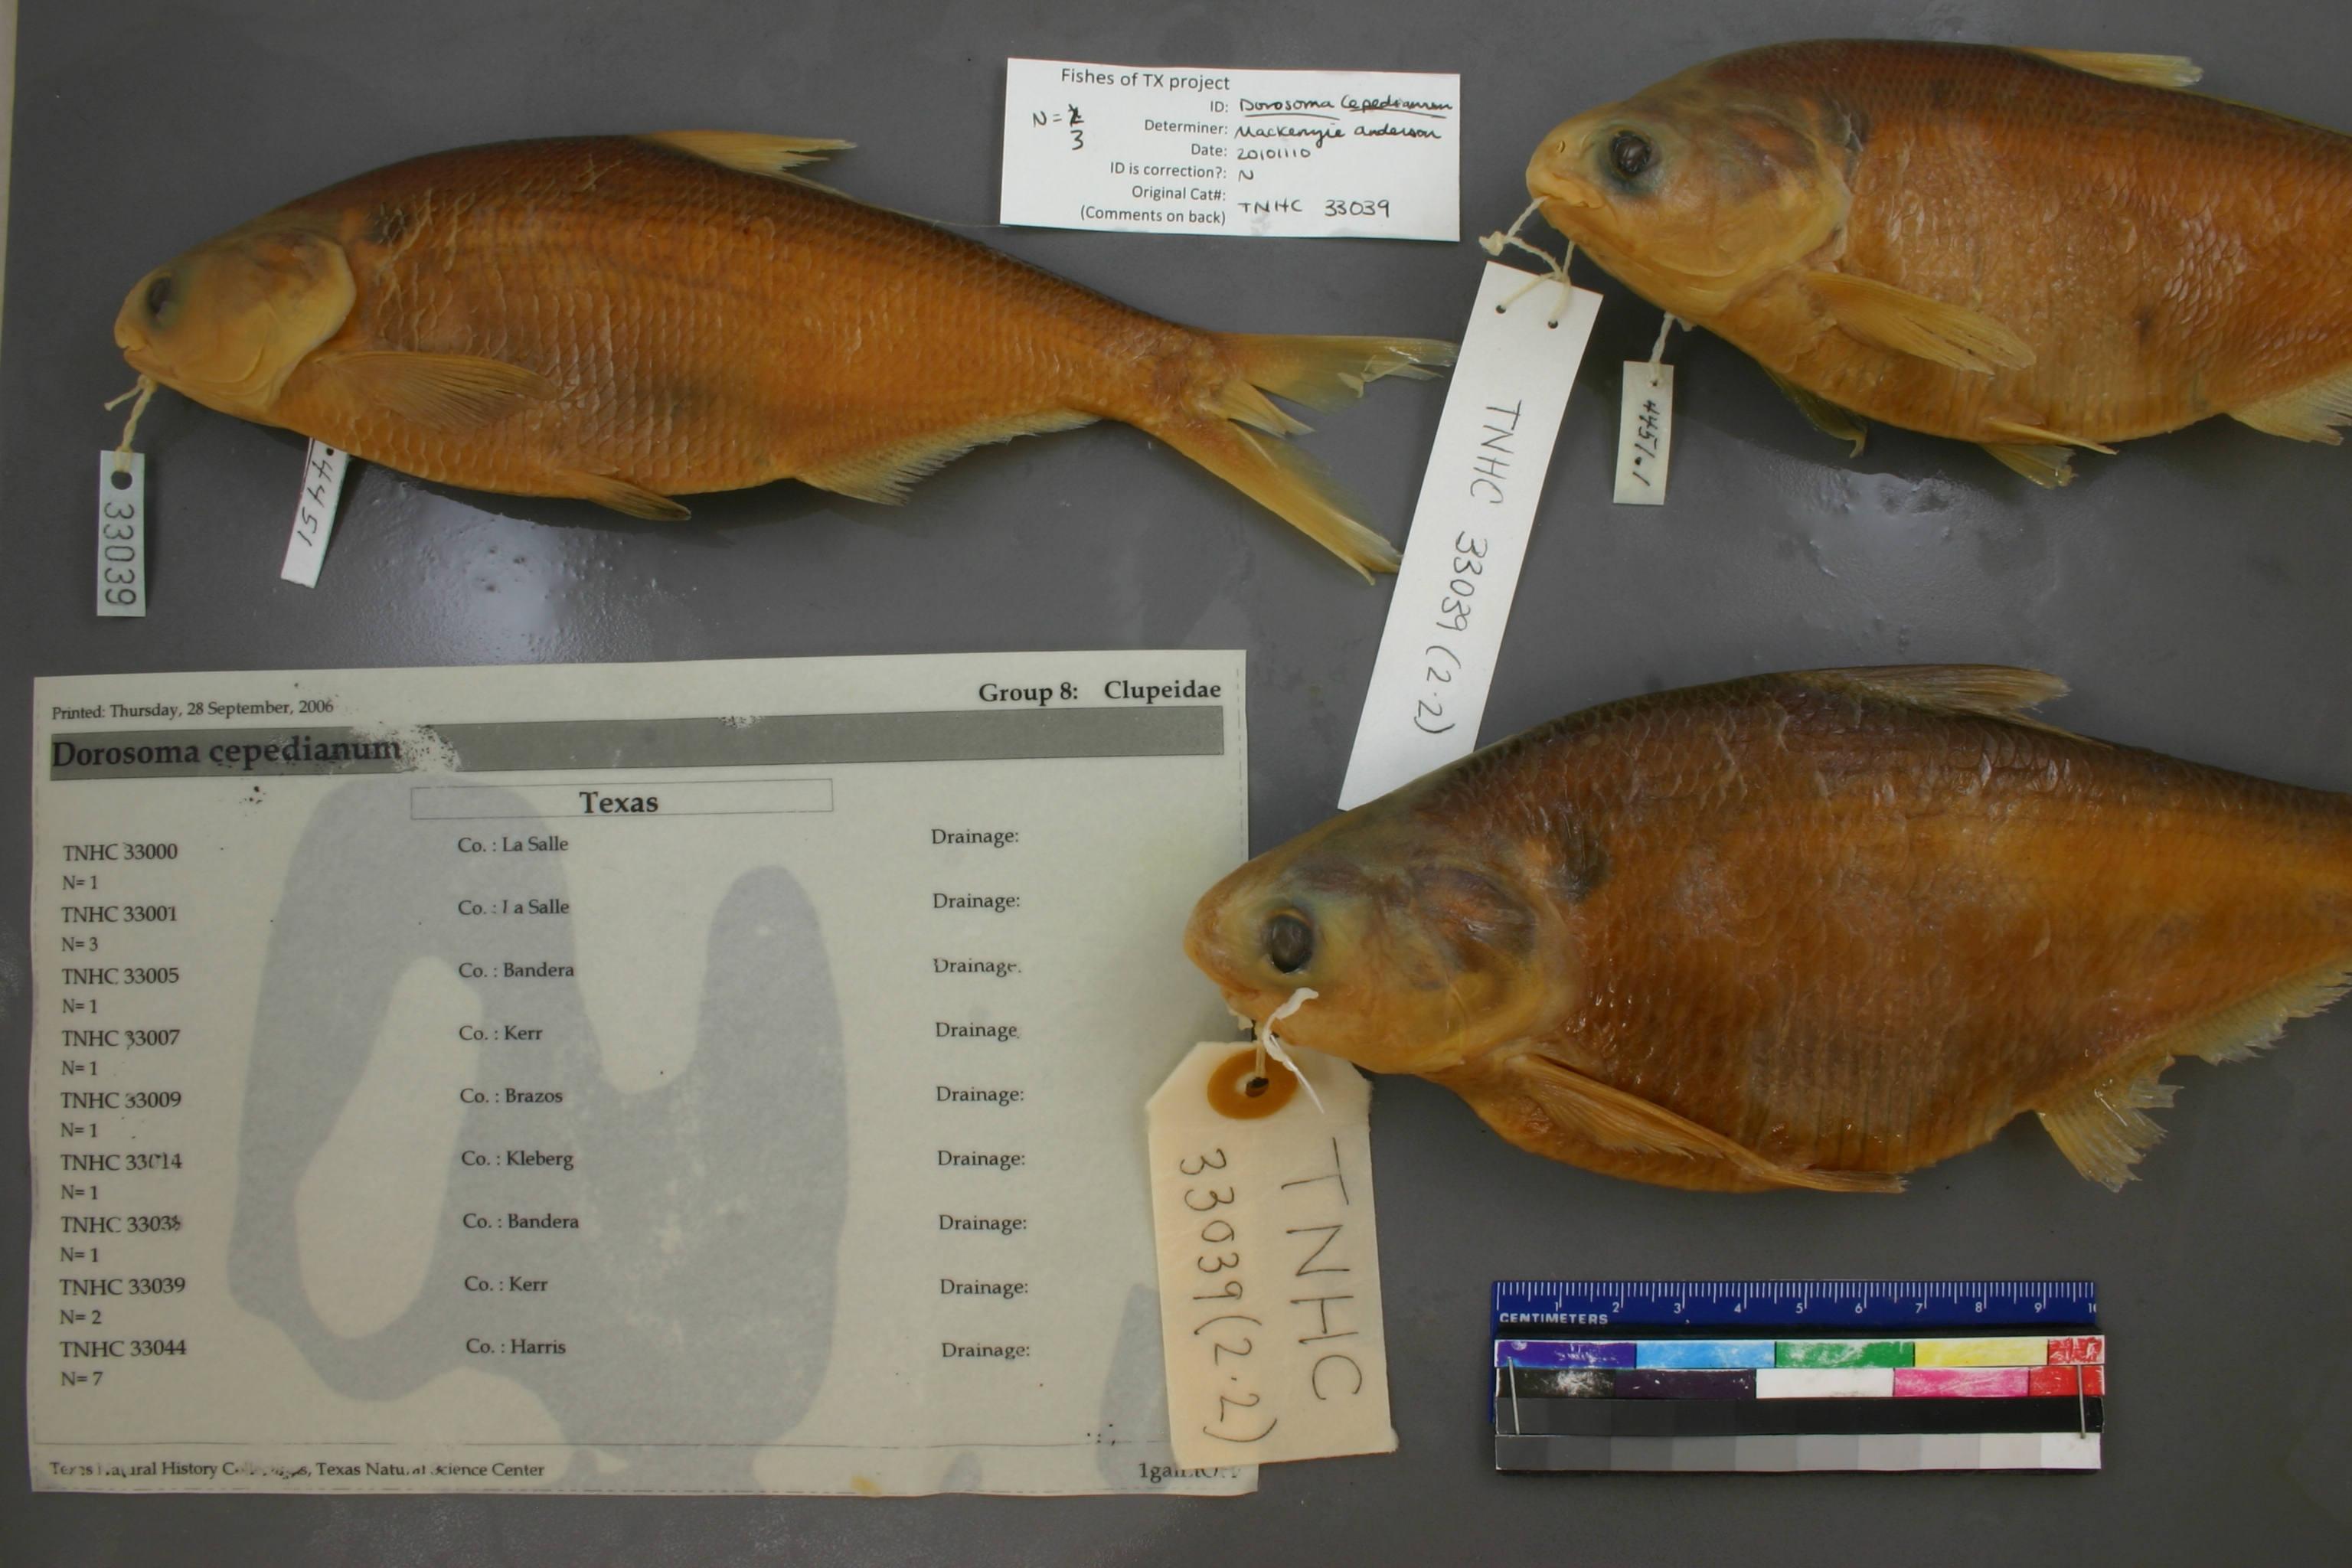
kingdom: Animalia
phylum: Chordata
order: Clupeiformes
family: Clupeidae
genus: Dorosoma
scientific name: Dorosoma cepedianum
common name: Gizzard shad
